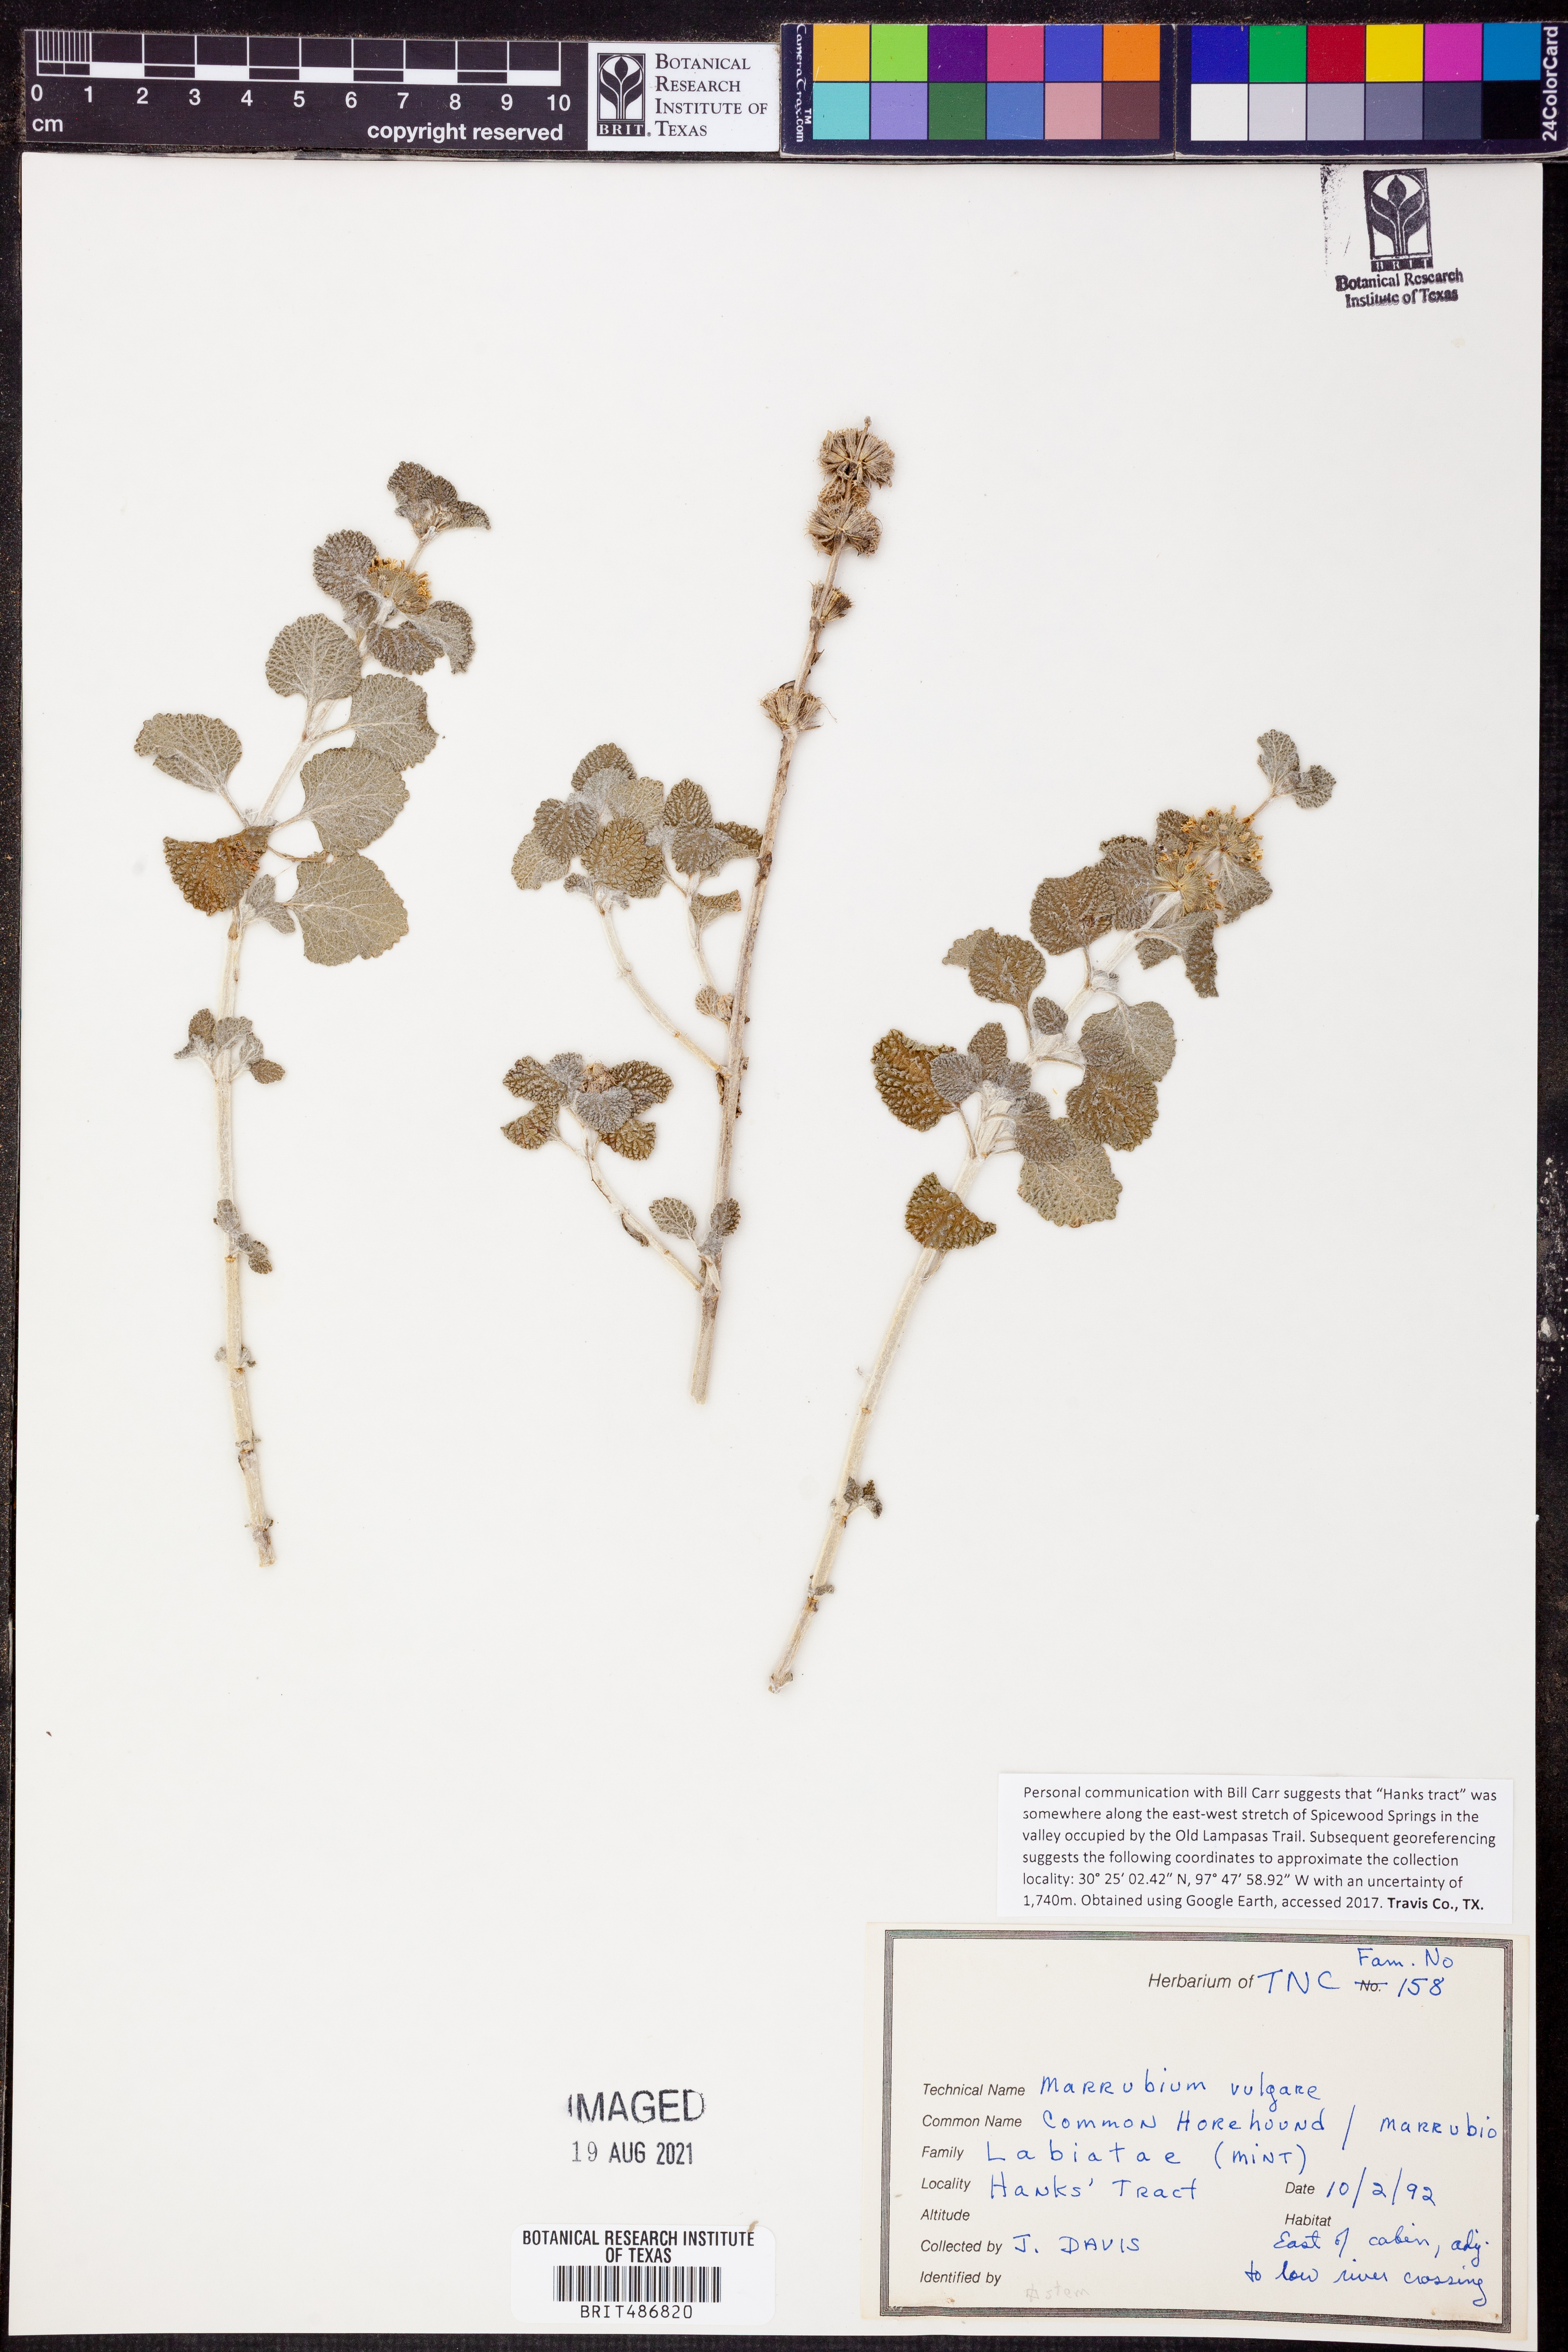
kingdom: Plantae
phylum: Tracheophyta
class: Magnoliopsida
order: Lamiales
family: Lamiaceae
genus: Marrubium
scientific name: Marrubium vulgare
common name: Horehound
